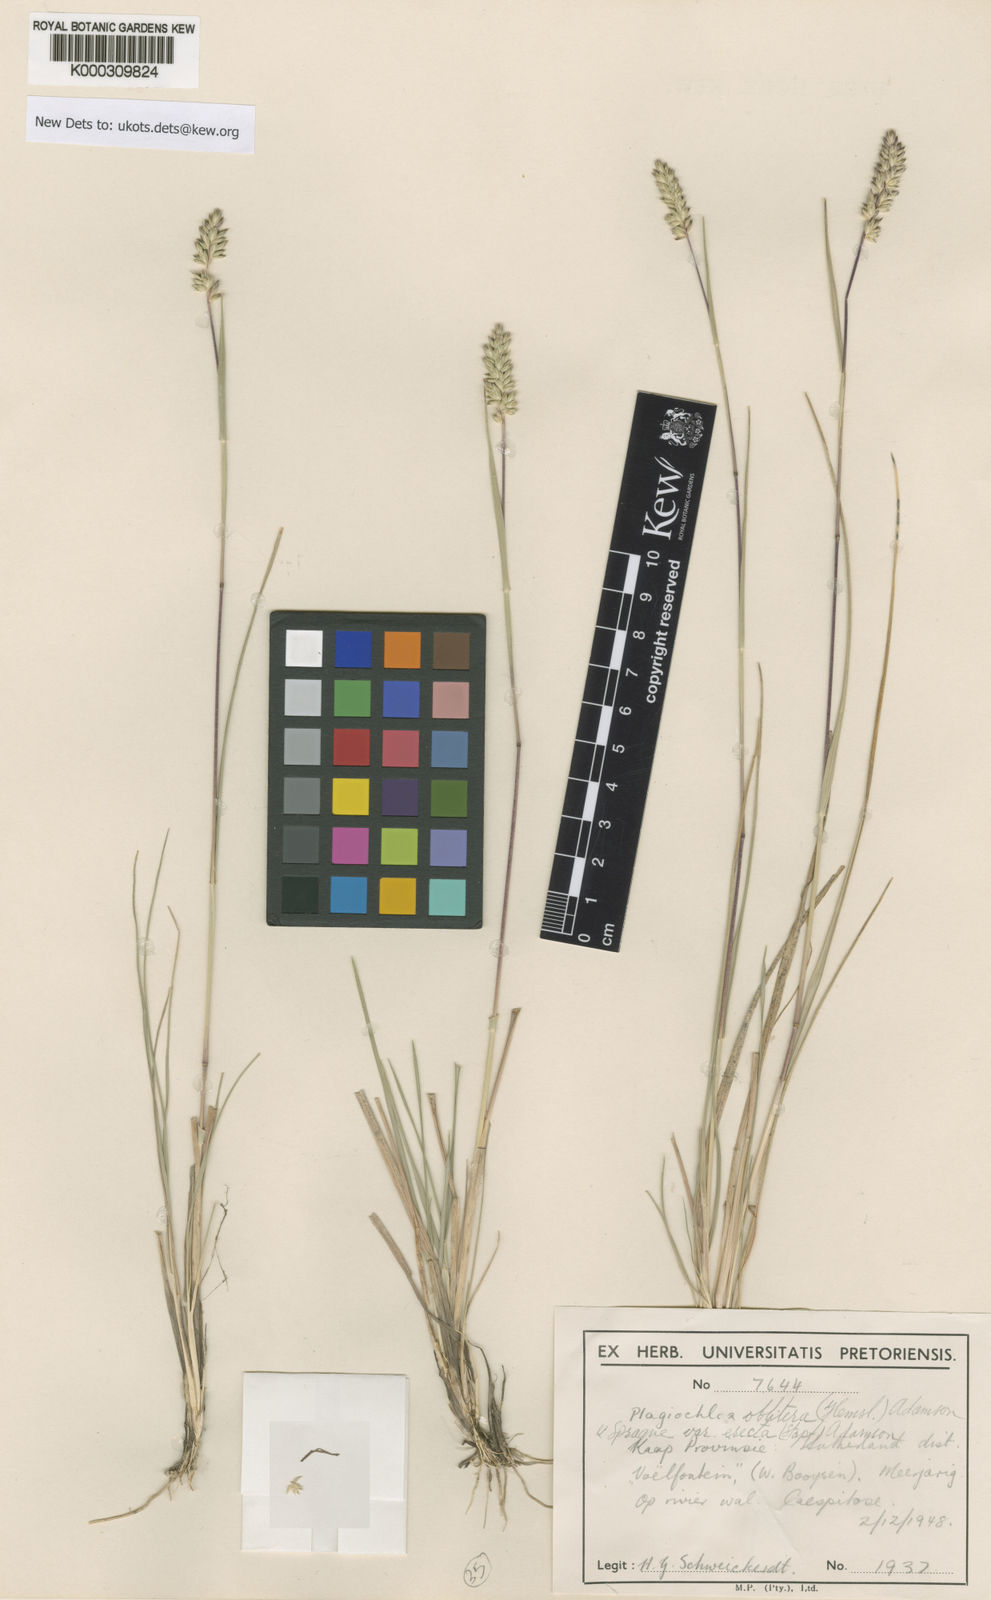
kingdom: Plantae
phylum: Tracheophyta
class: Liliopsida
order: Poales
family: Poaceae
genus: Tribolium
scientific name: Tribolium obliterum
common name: Capetown grass
